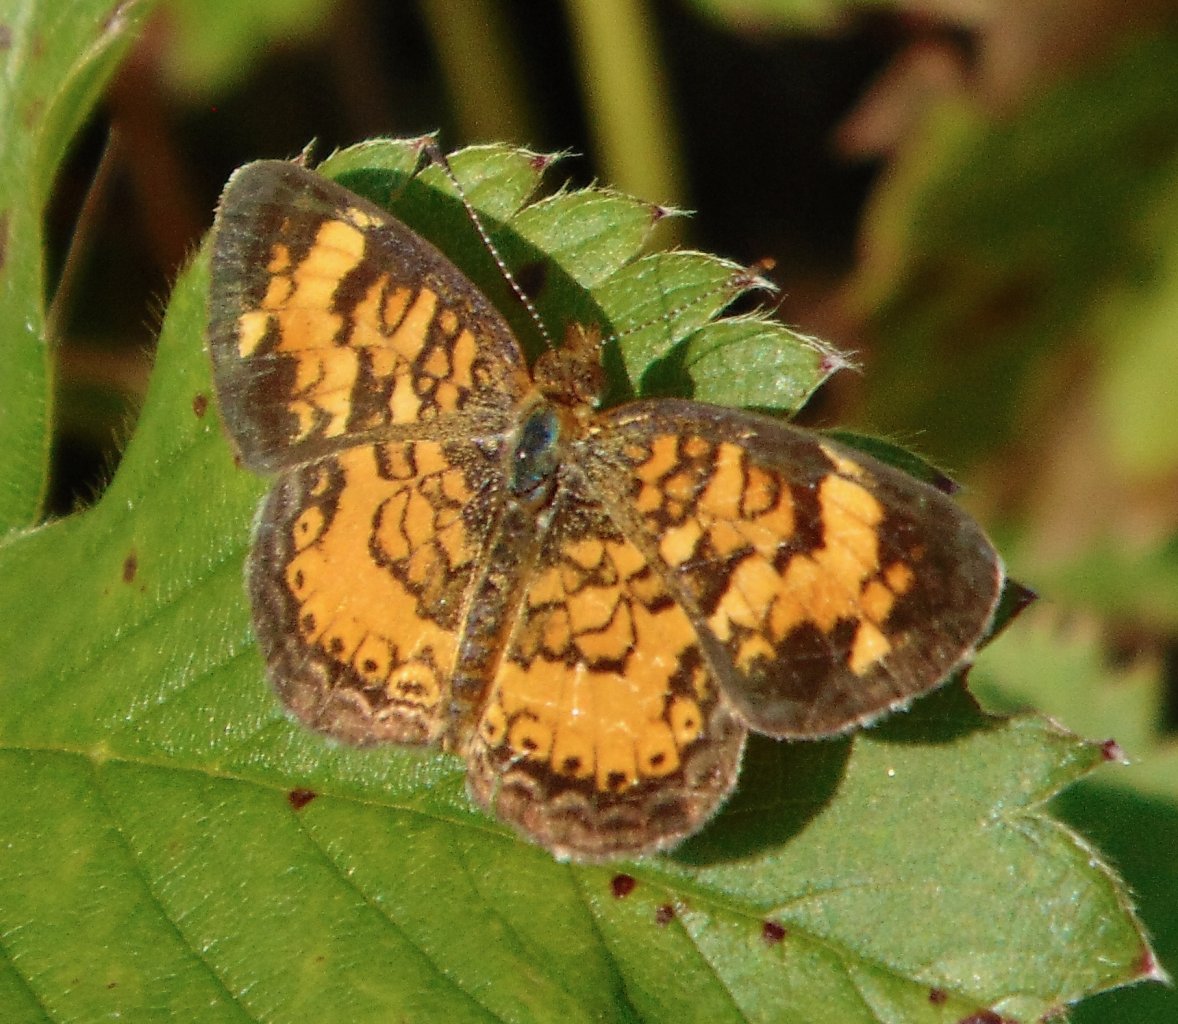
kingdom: Animalia
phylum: Arthropoda
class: Insecta
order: Lepidoptera
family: Nymphalidae
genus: Phyciodes
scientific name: Phyciodes tharos
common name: Pearl Crescent
